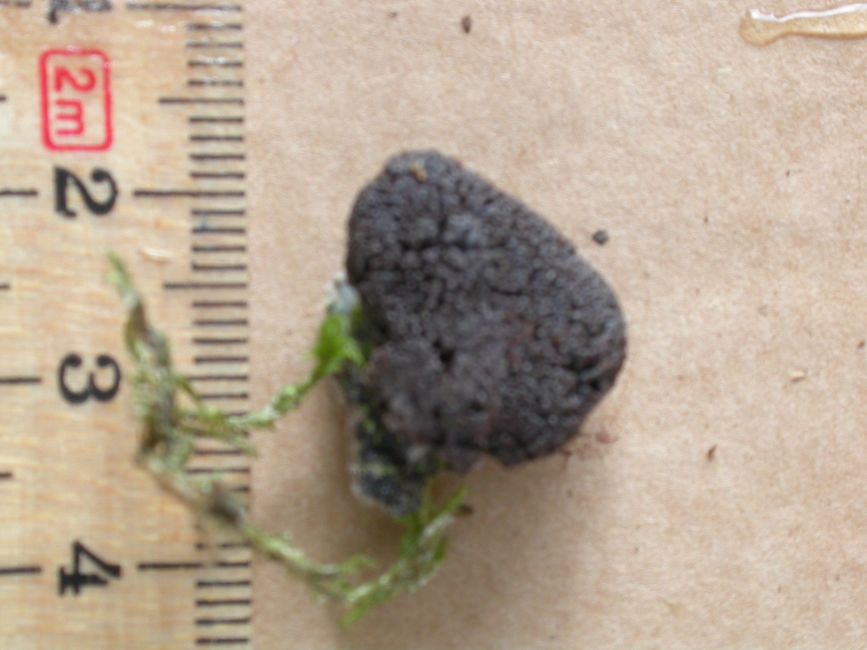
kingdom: Protozoa
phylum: Mycetozoa
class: Myxomycetes
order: Cribrariales
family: Tubiferaceae
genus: Tubifera
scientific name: Tubifera ferruginosa
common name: kanel-støvrør
